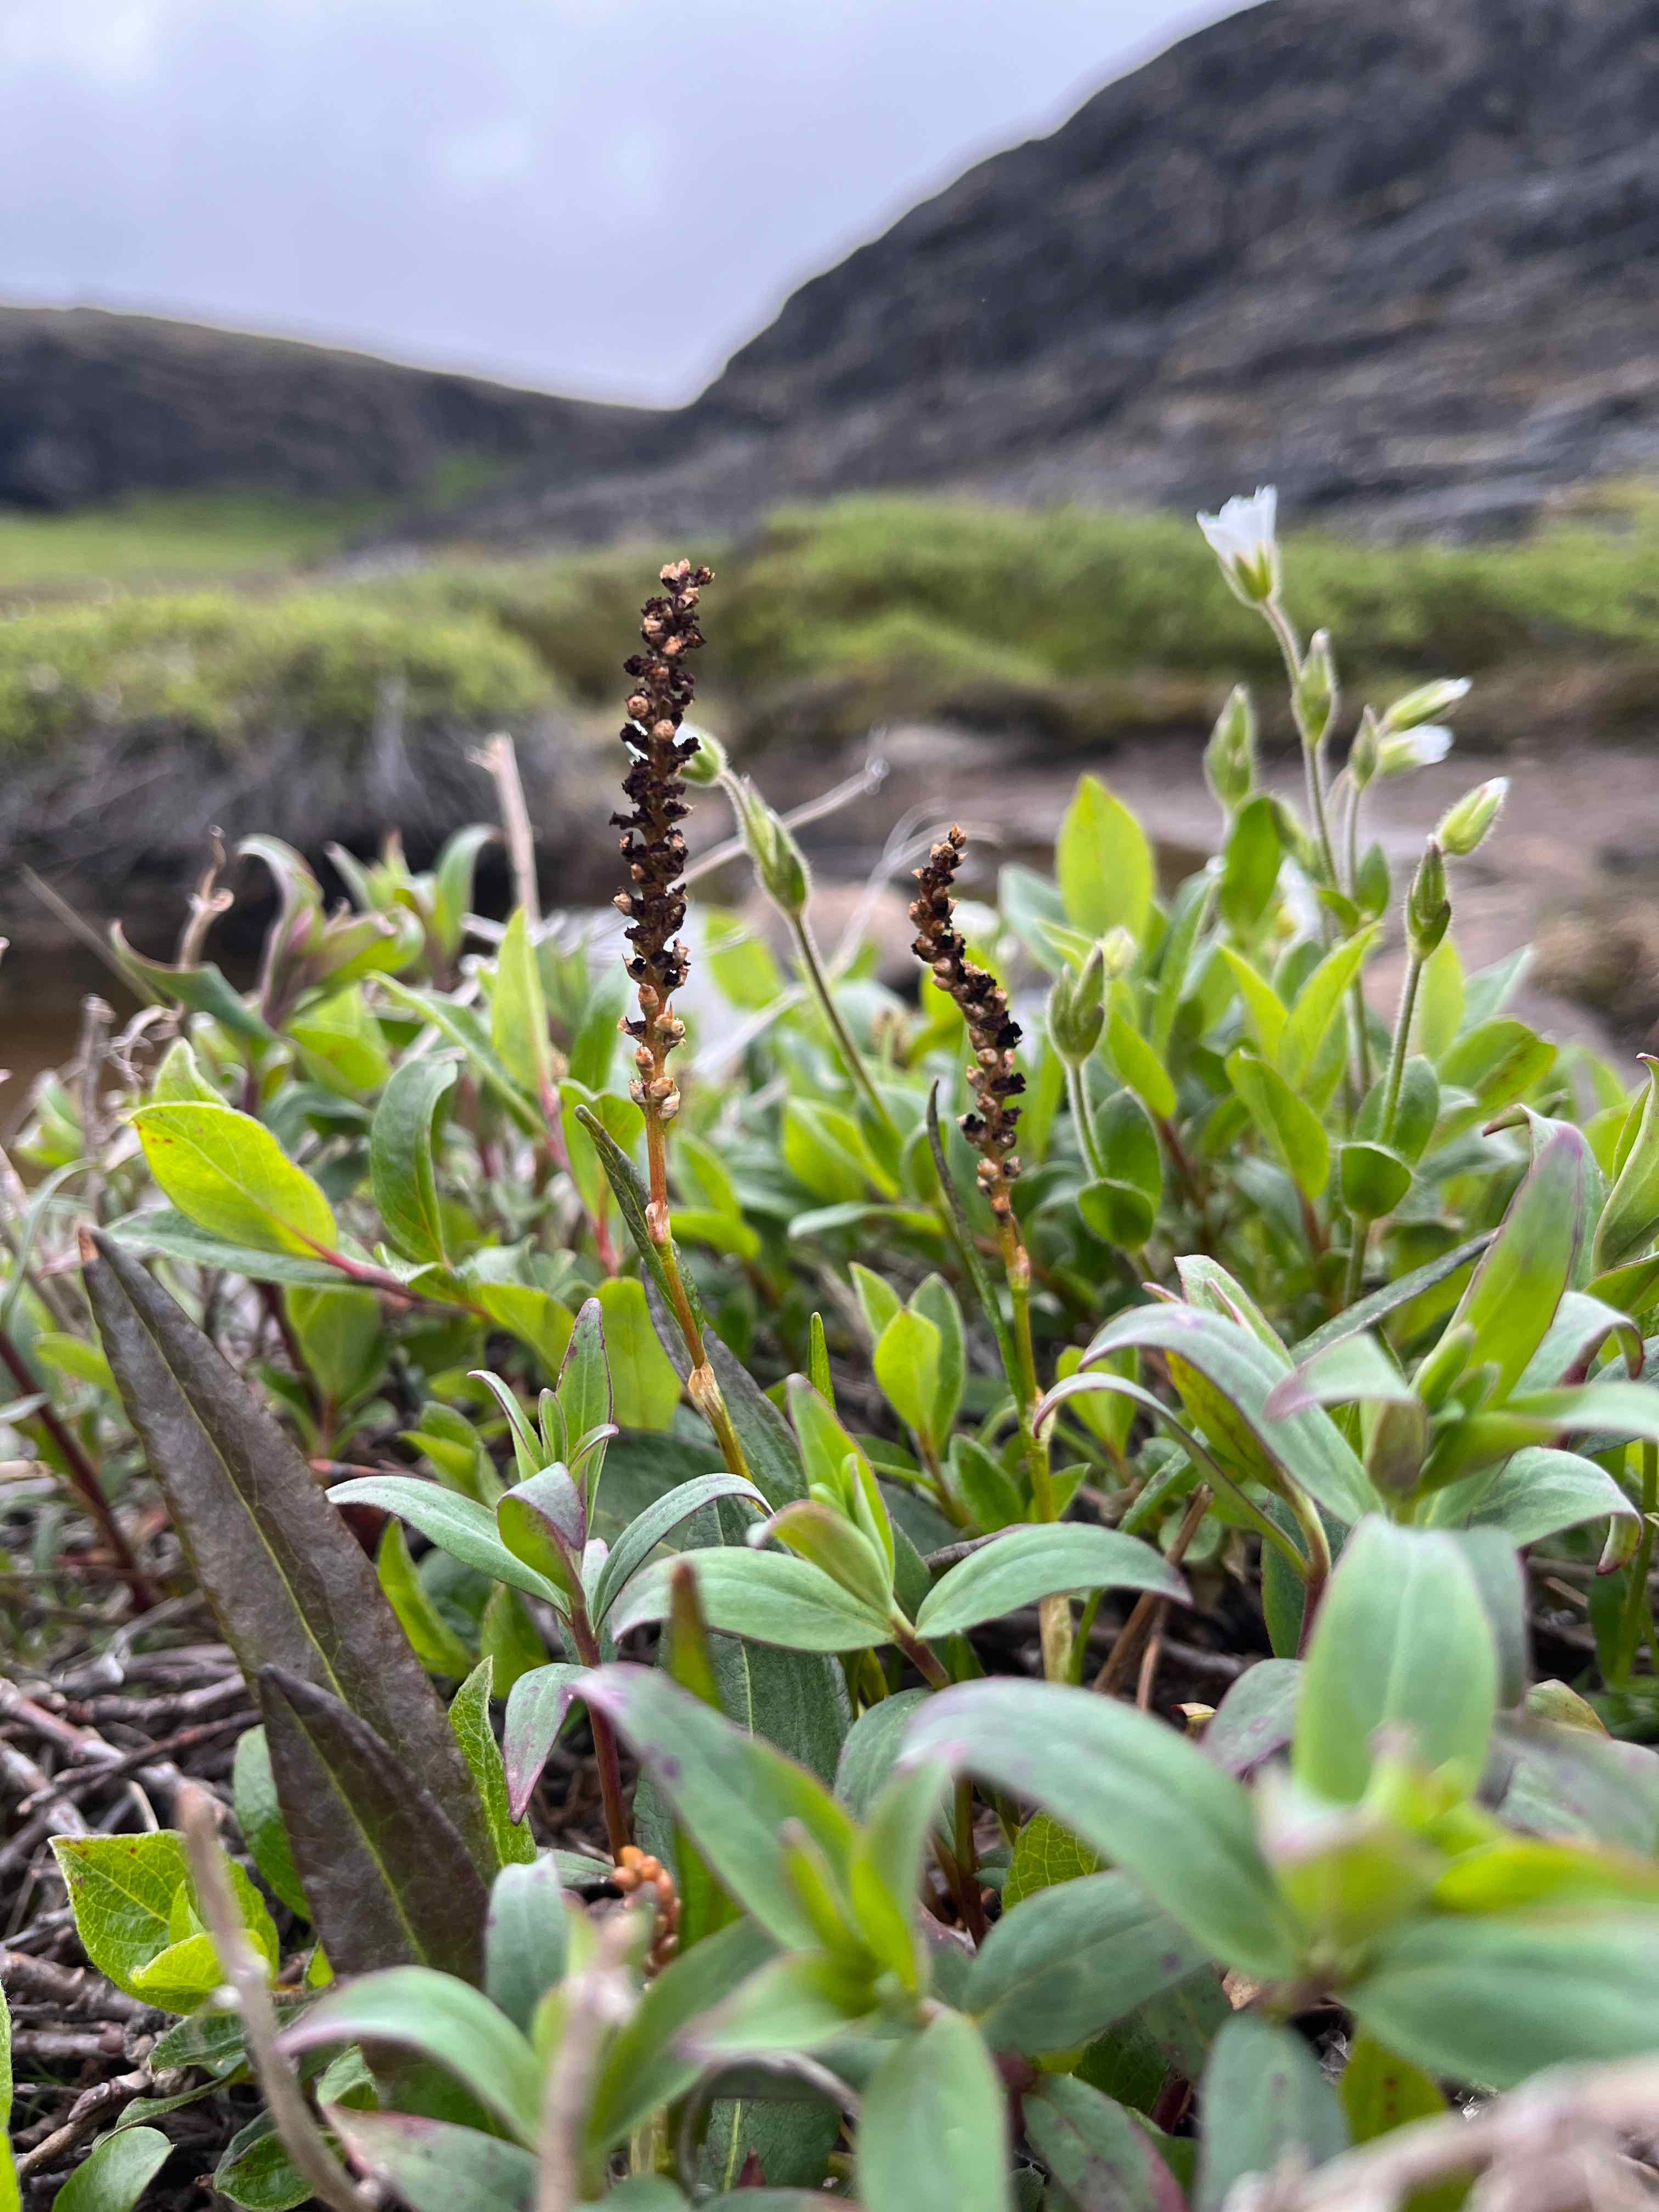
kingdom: Fungi
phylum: Basidiomycota
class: Microbotryomycetes
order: Microbotryales
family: Microbotryaceae
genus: Microbotryum
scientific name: Microbotryum bistortarum
